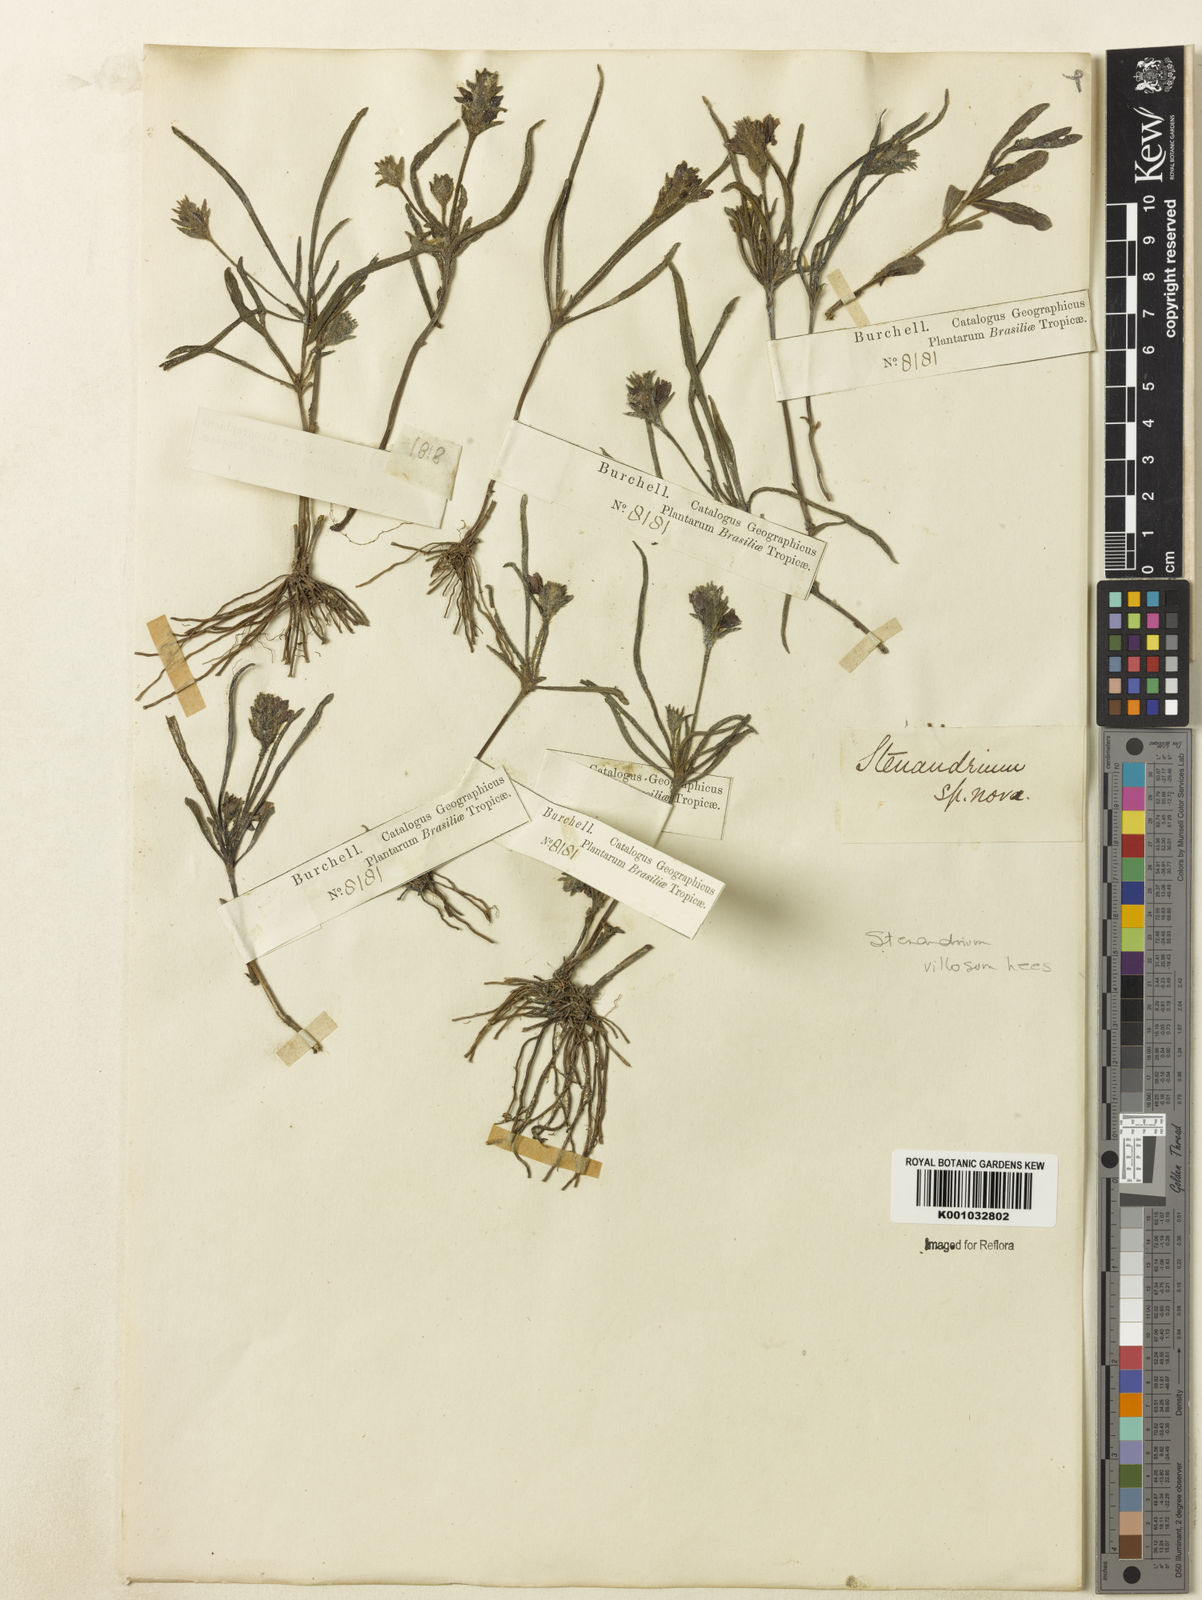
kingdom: Plantae
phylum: Tracheophyta
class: Magnoliopsida
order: Lamiales
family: Acanthaceae
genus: Stenandrium
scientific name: Stenandrium villosum
